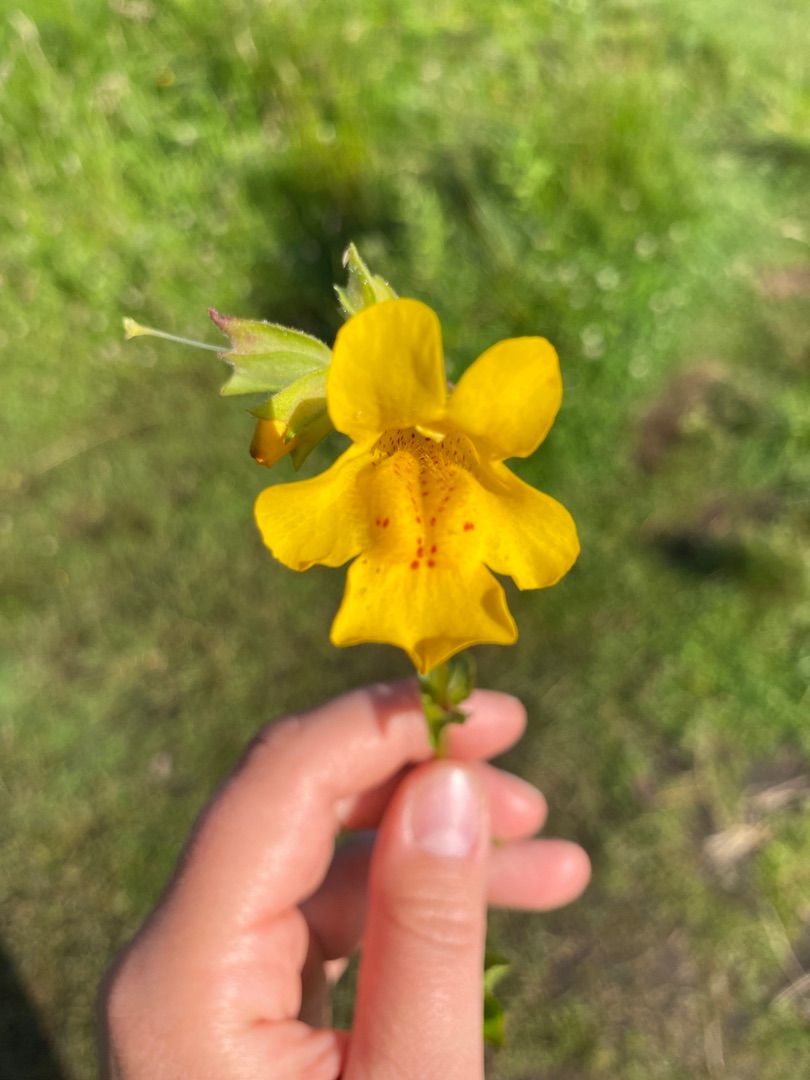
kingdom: Plantae
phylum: Tracheophyta
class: Magnoliopsida
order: Lamiales
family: Phrymaceae
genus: Erythranthe
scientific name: Erythranthe guttata
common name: Abeblomst
